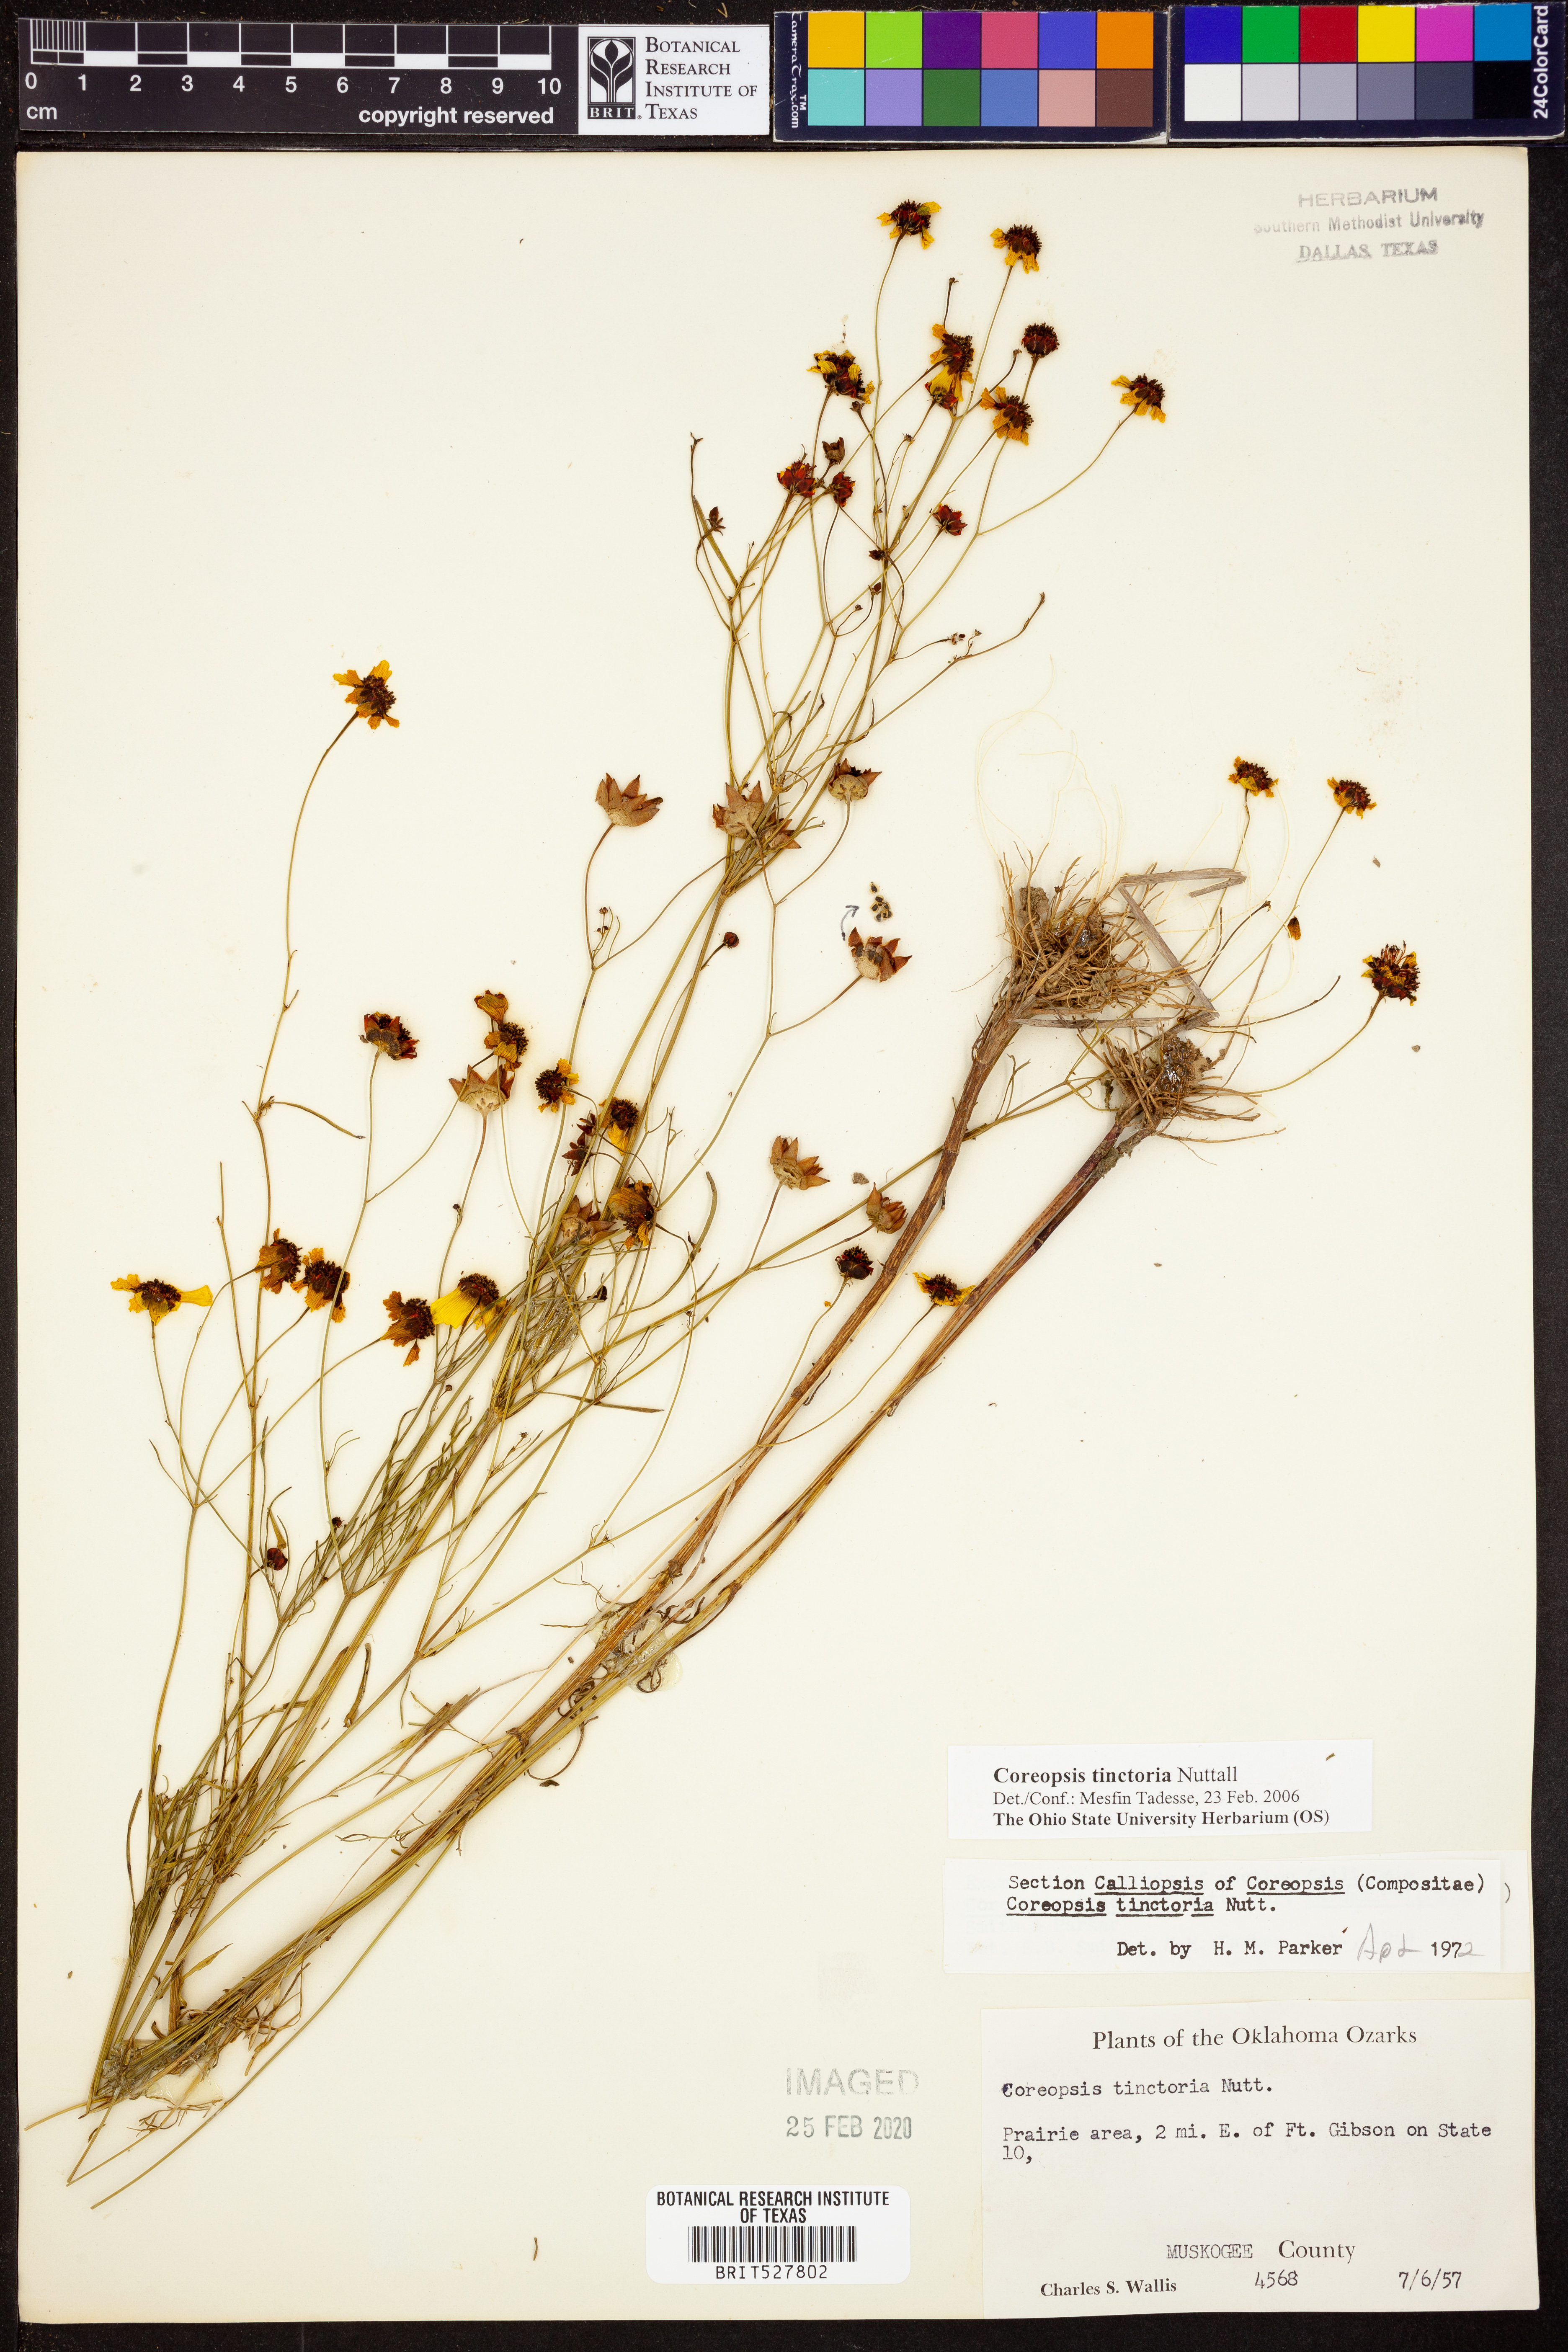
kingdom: Plantae
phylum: Tracheophyta
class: Magnoliopsida
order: Asterales
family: Asteraceae
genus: Coreopsis
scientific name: Coreopsis tinctoria
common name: Garden tickseed
